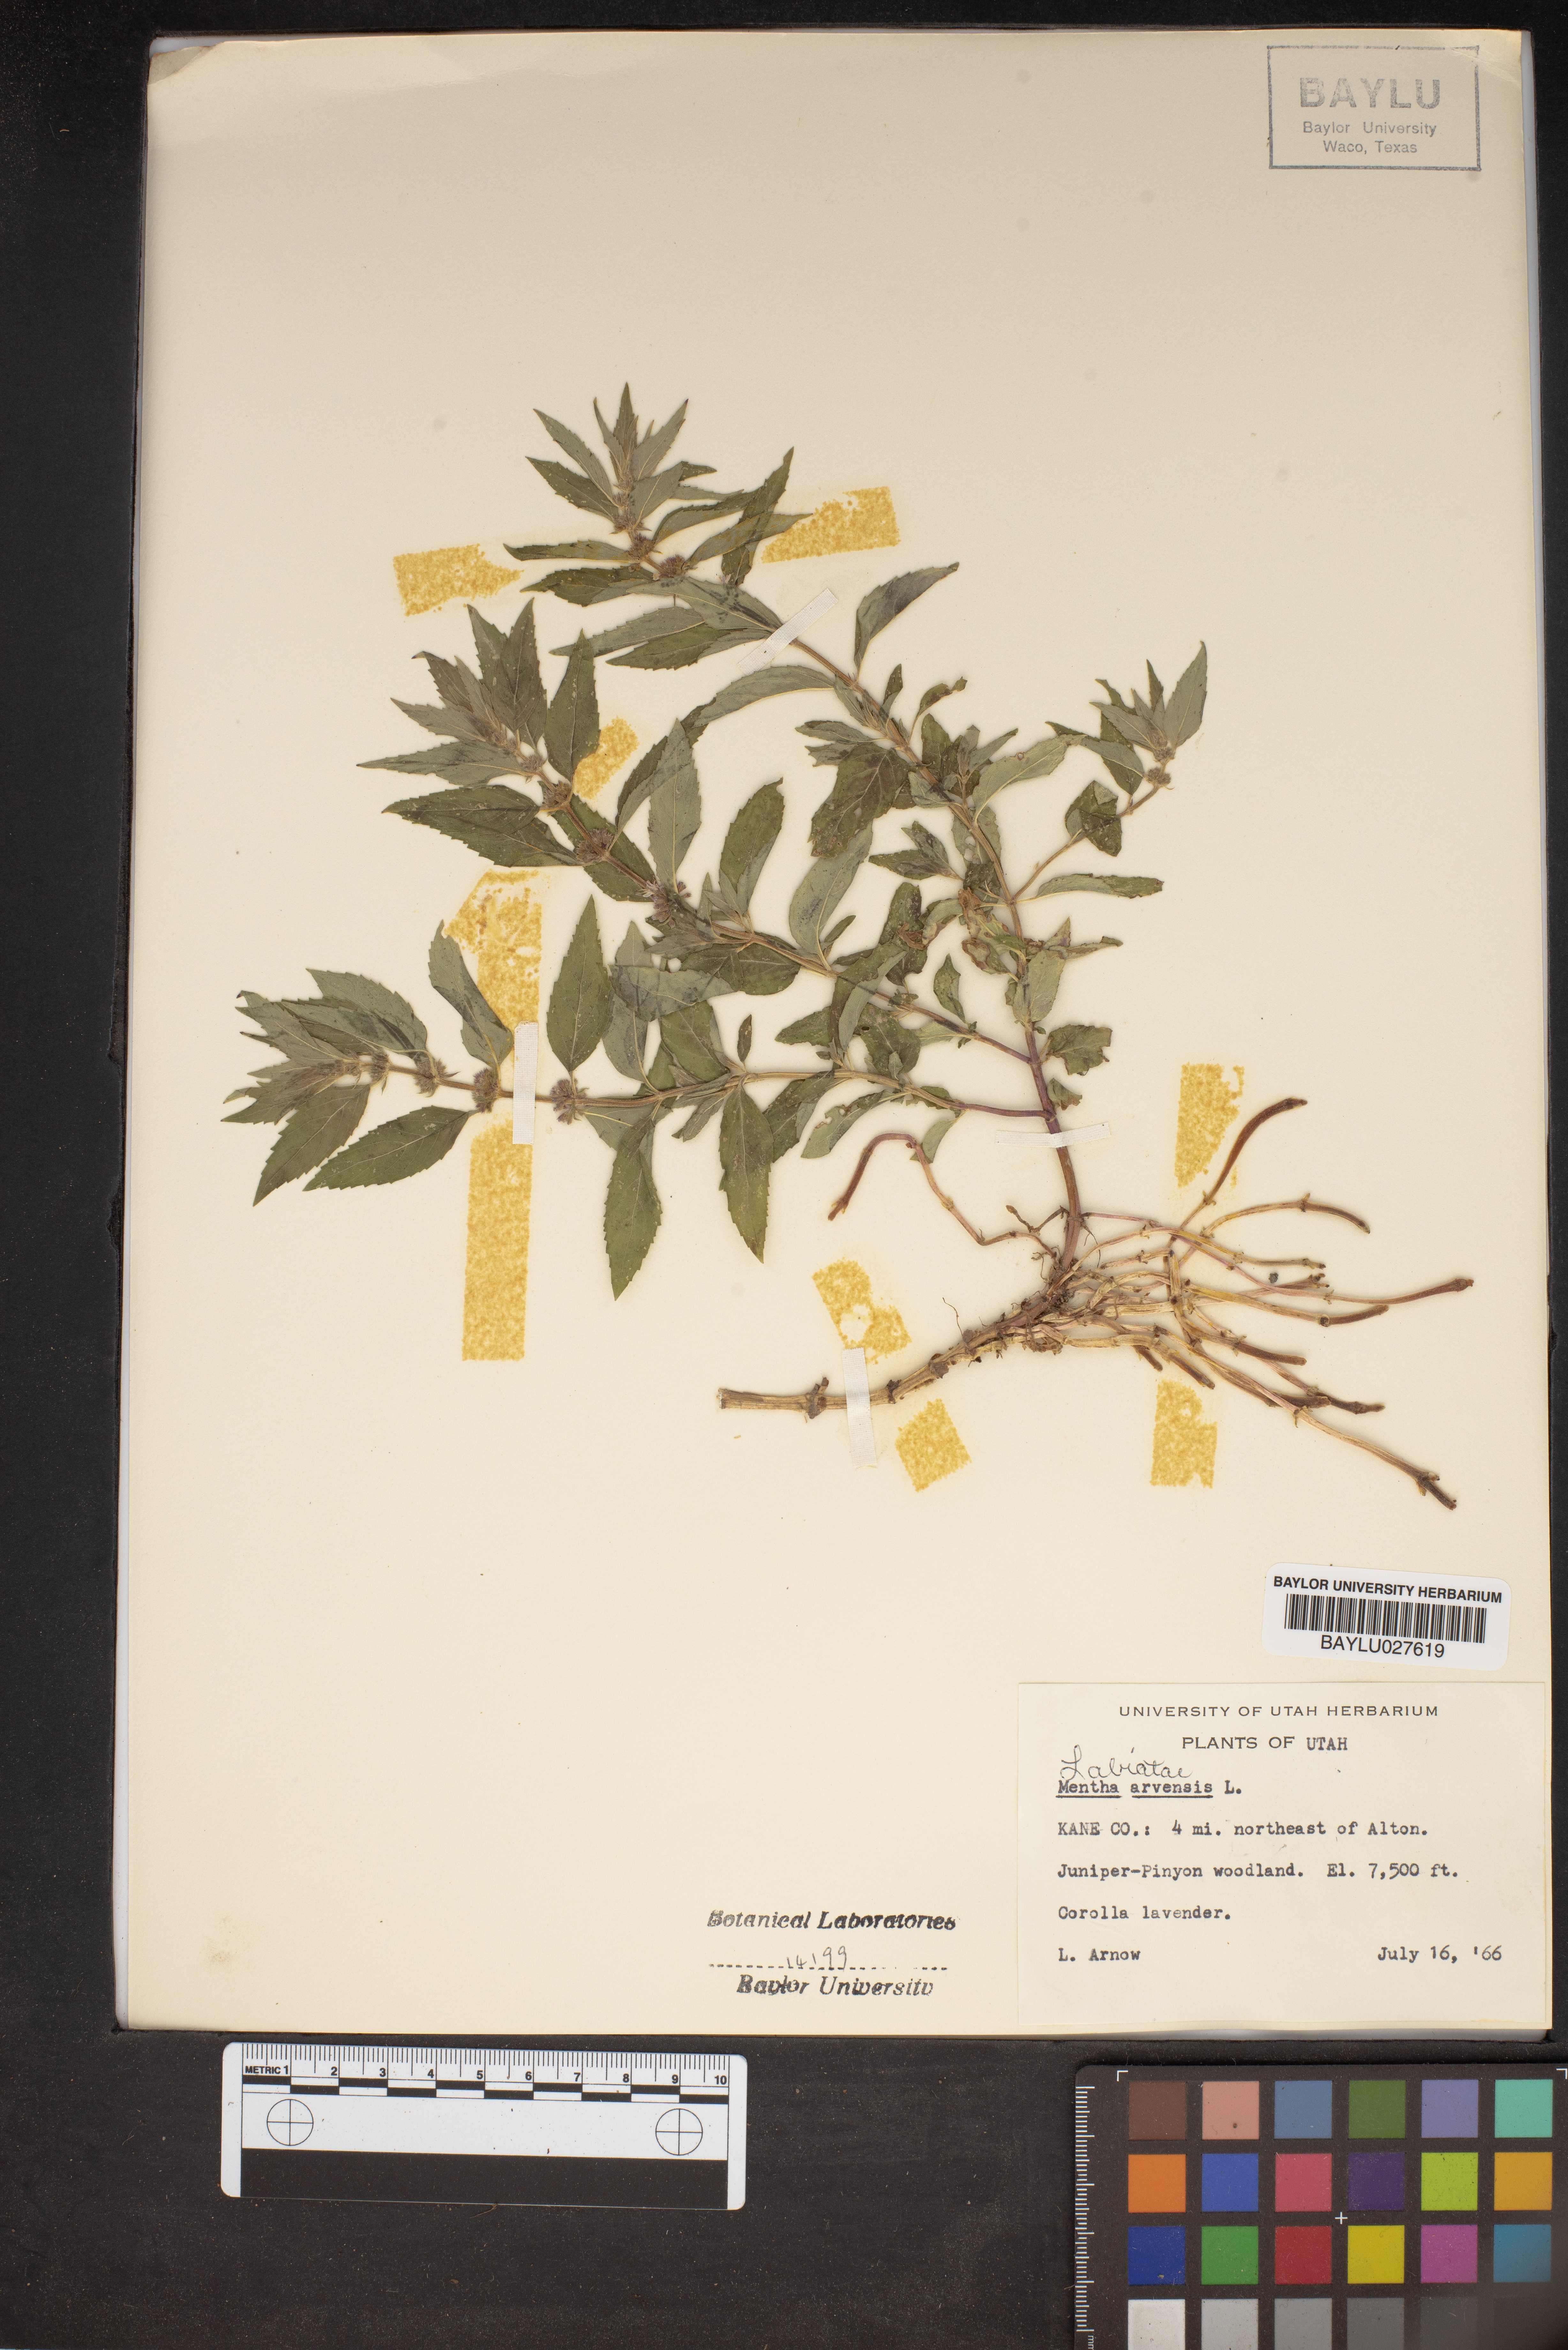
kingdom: Plantae
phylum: Tracheophyta
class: Magnoliopsida
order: Lamiales
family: Lamiaceae
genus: Mentha
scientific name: Mentha arvensis
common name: Corn mint
